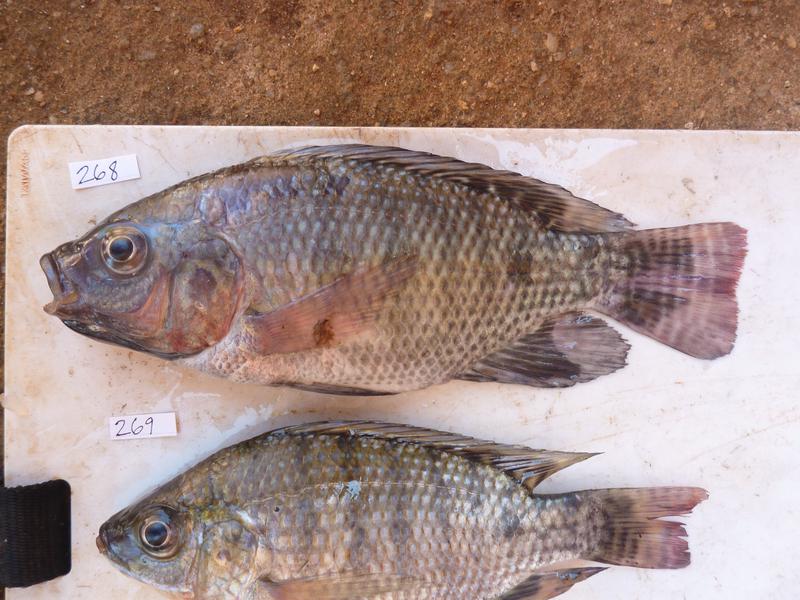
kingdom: Animalia
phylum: Chordata
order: Perciformes
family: Cichlidae
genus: Oreochromis
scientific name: Oreochromis niloticus
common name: Nile tilapia
